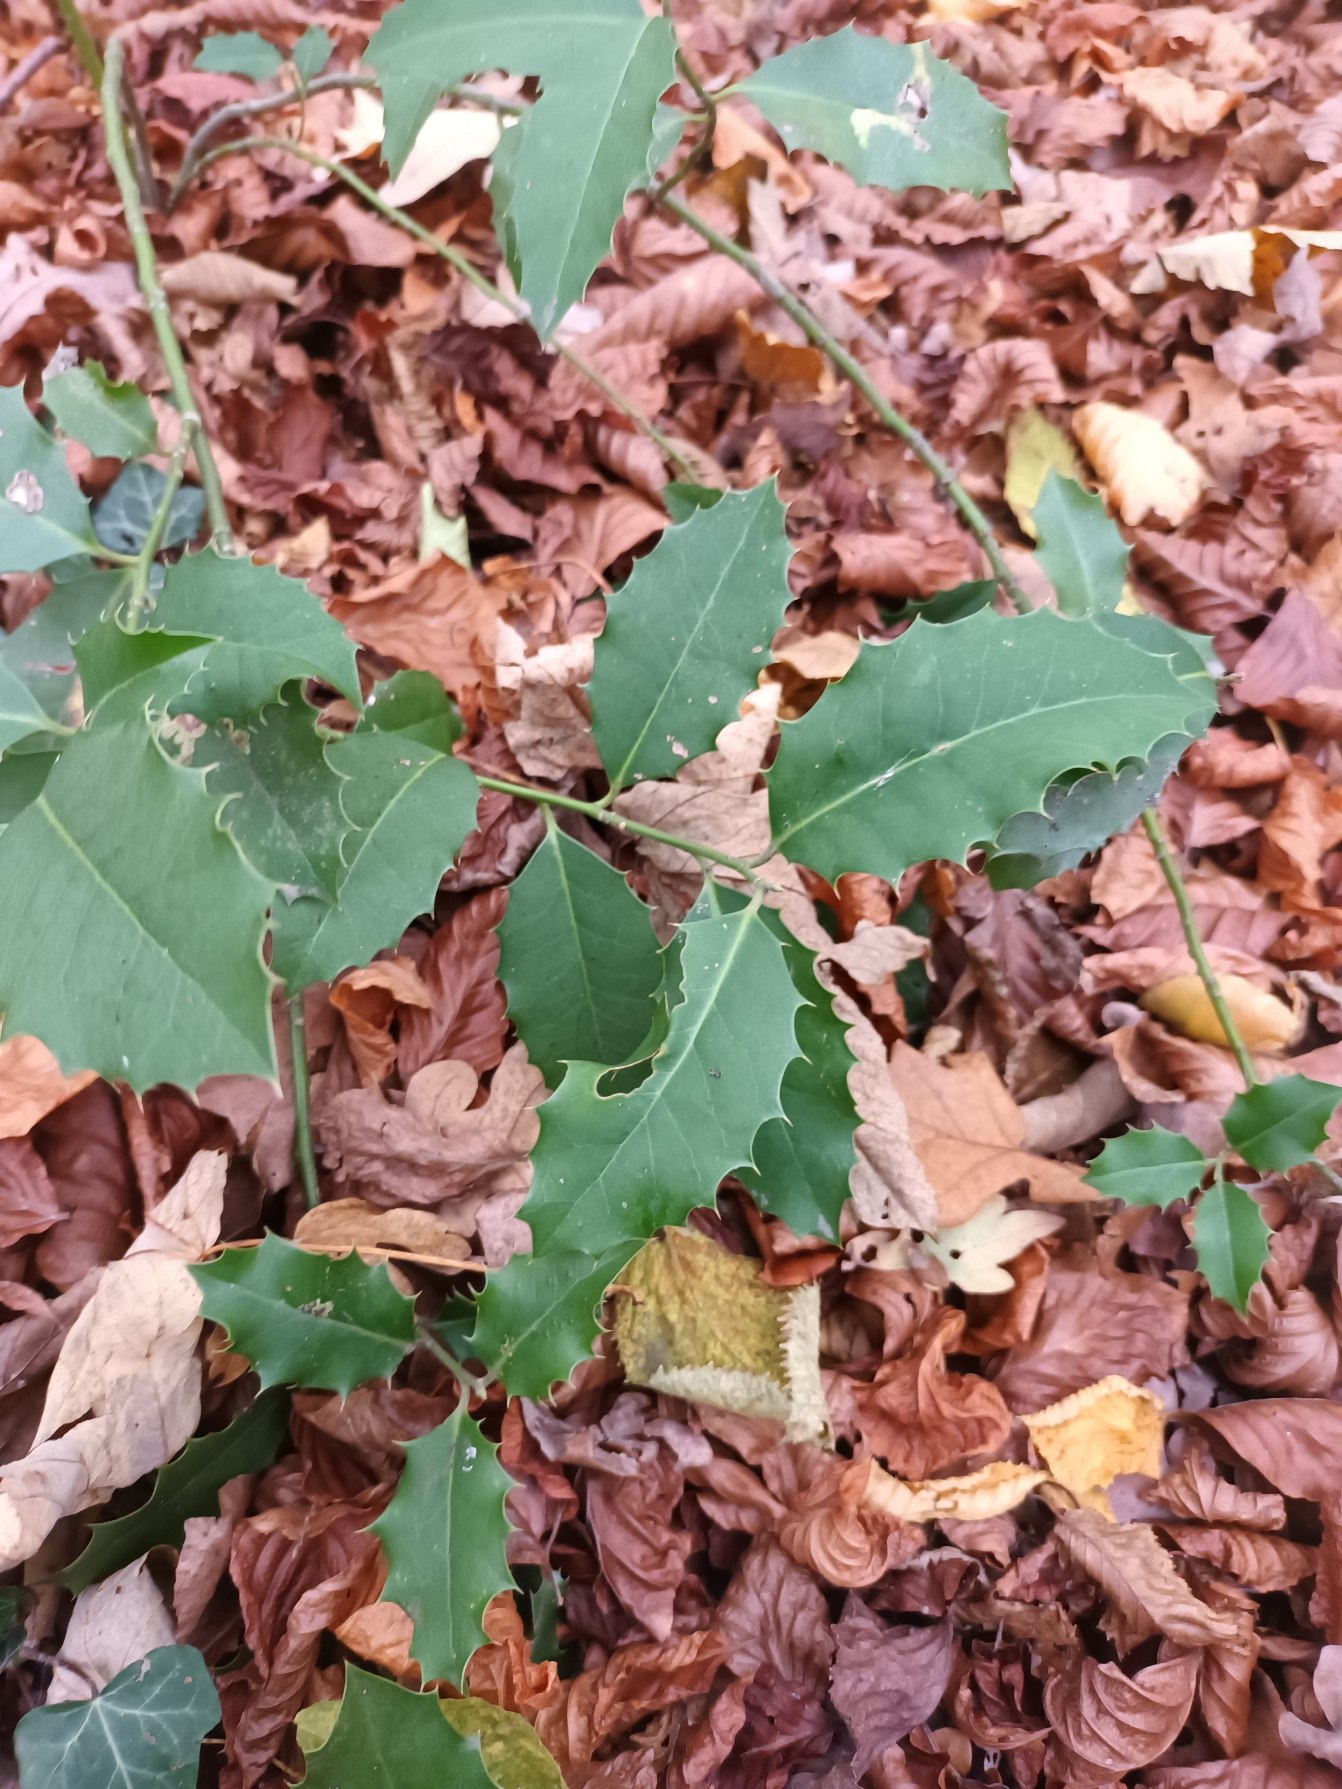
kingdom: Plantae
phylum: Tracheophyta
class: Magnoliopsida
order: Aquifoliales
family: Aquifoliaceae
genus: Ilex
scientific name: Ilex altaclerensis
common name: Storbladet kristtorn
